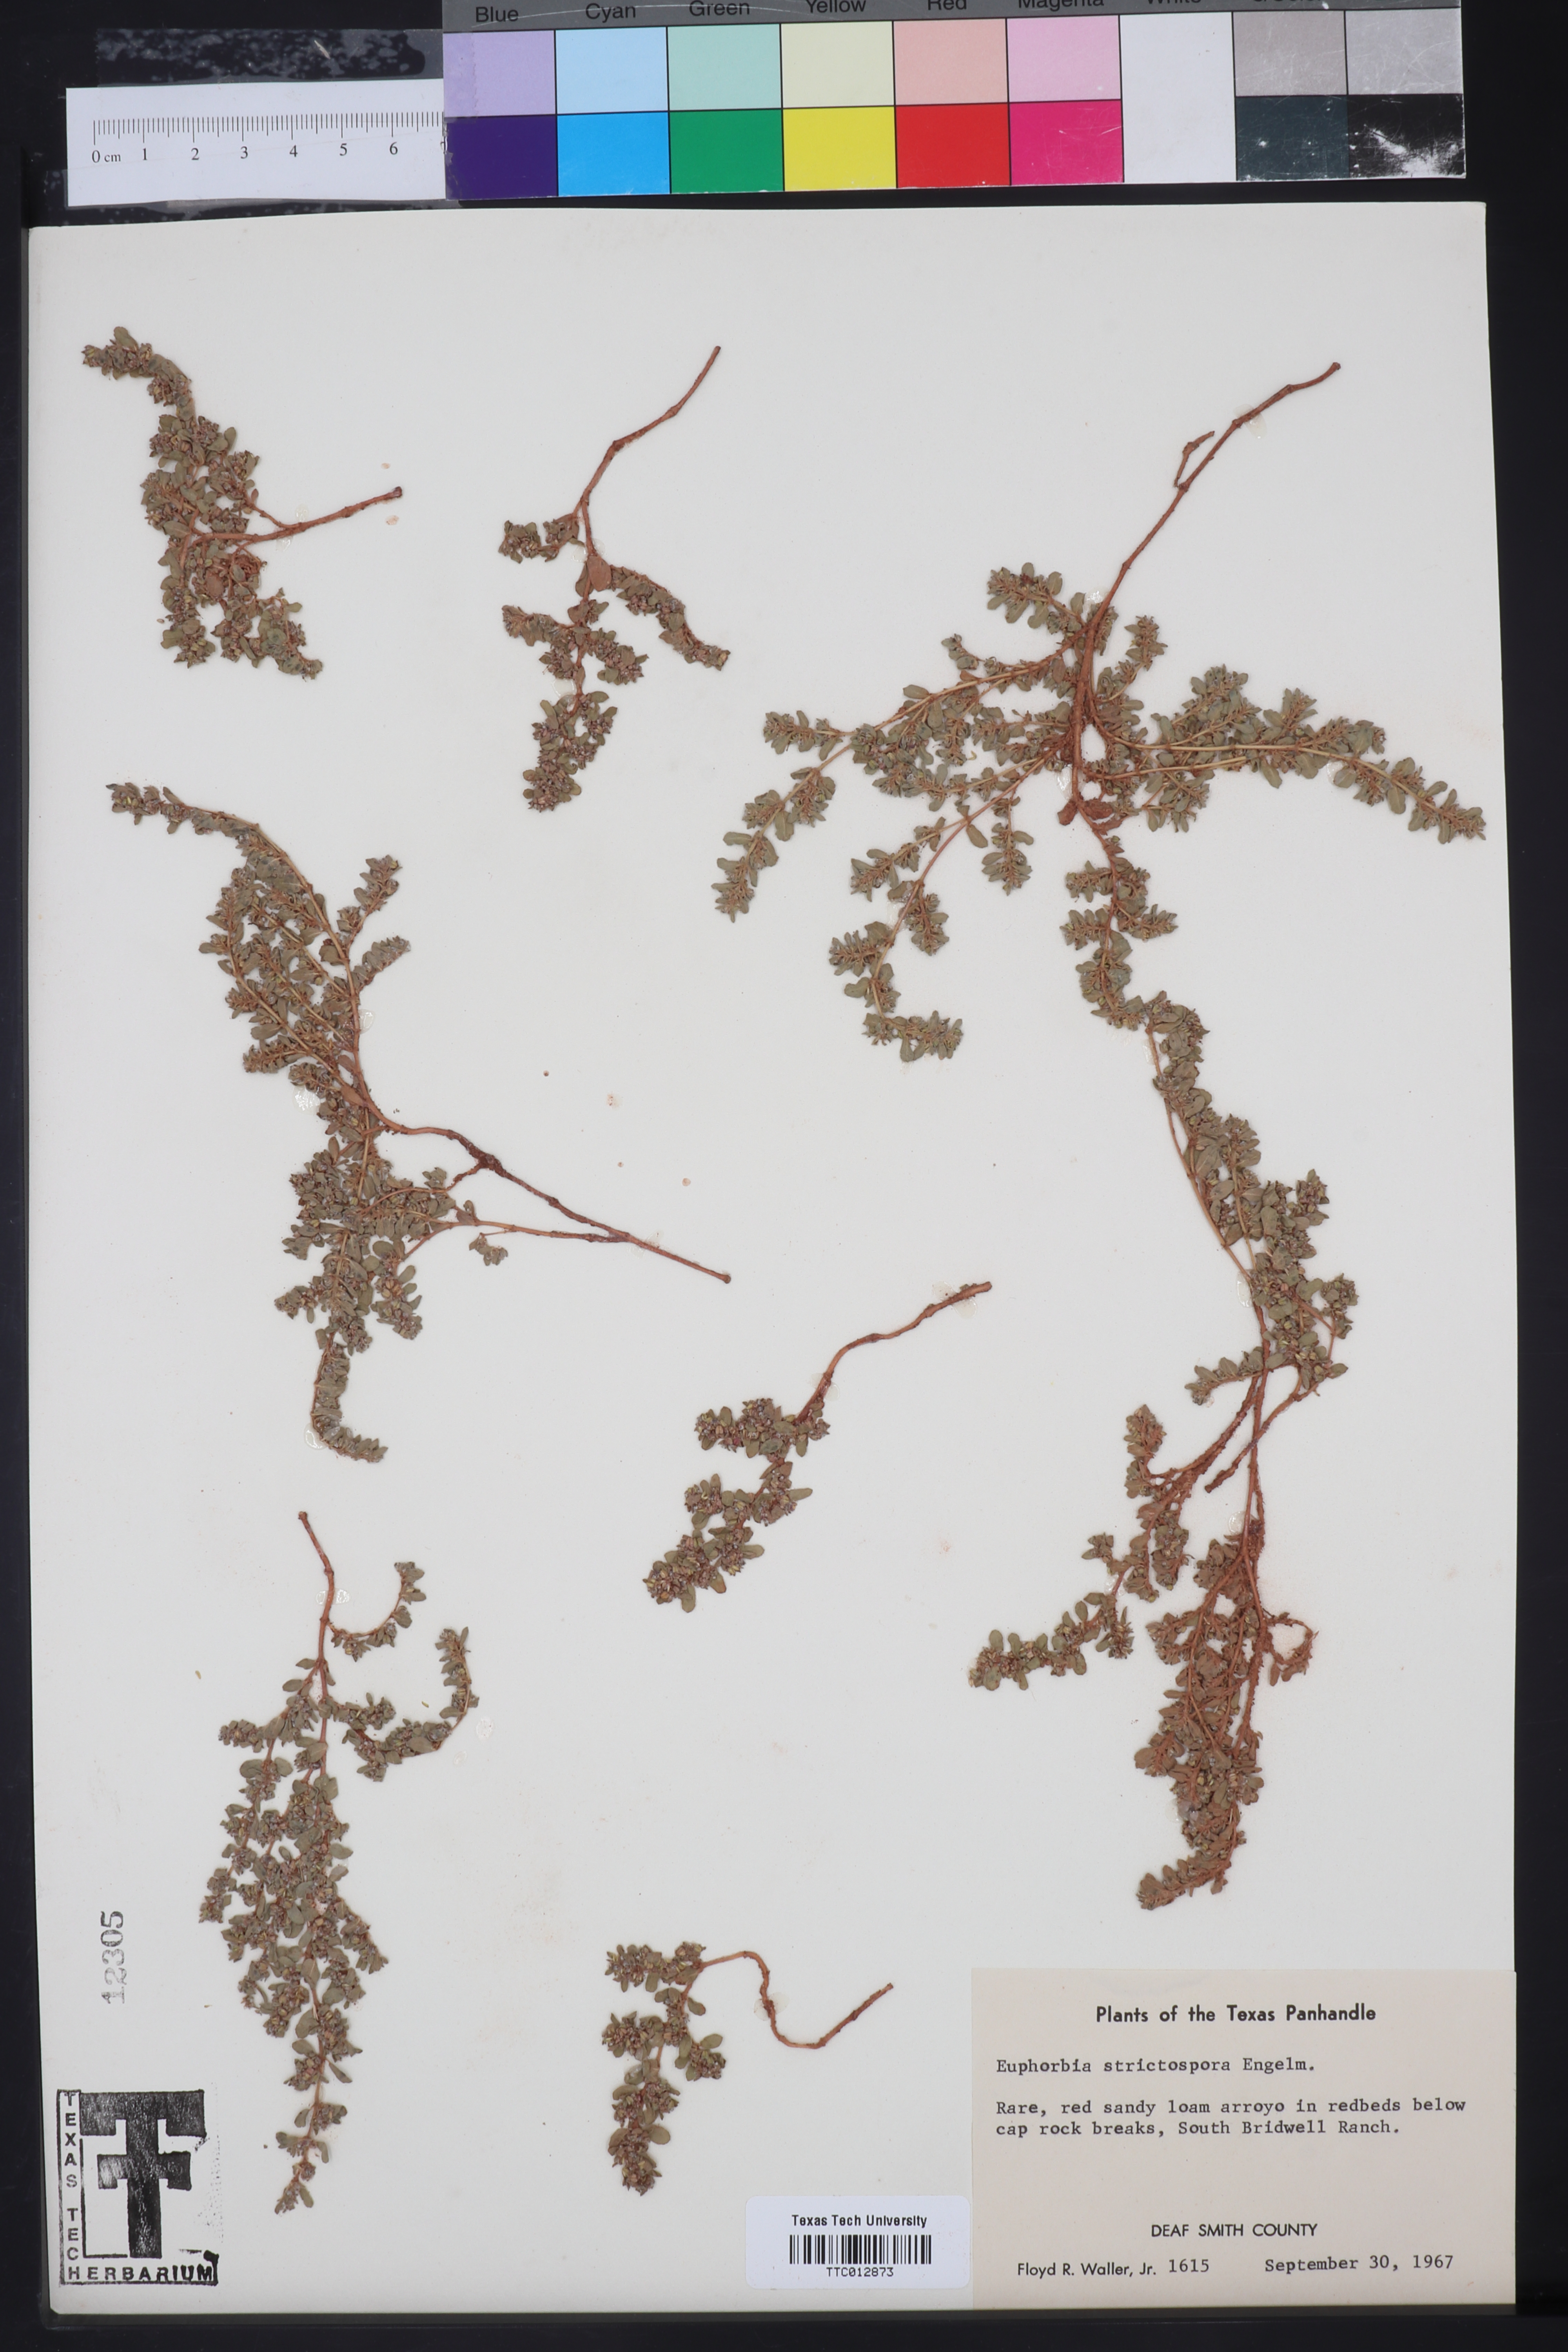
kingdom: Plantae
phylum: Tracheophyta
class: Magnoliopsida
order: Malpighiales
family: Euphorbiaceae
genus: Euphorbia
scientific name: Euphorbia
